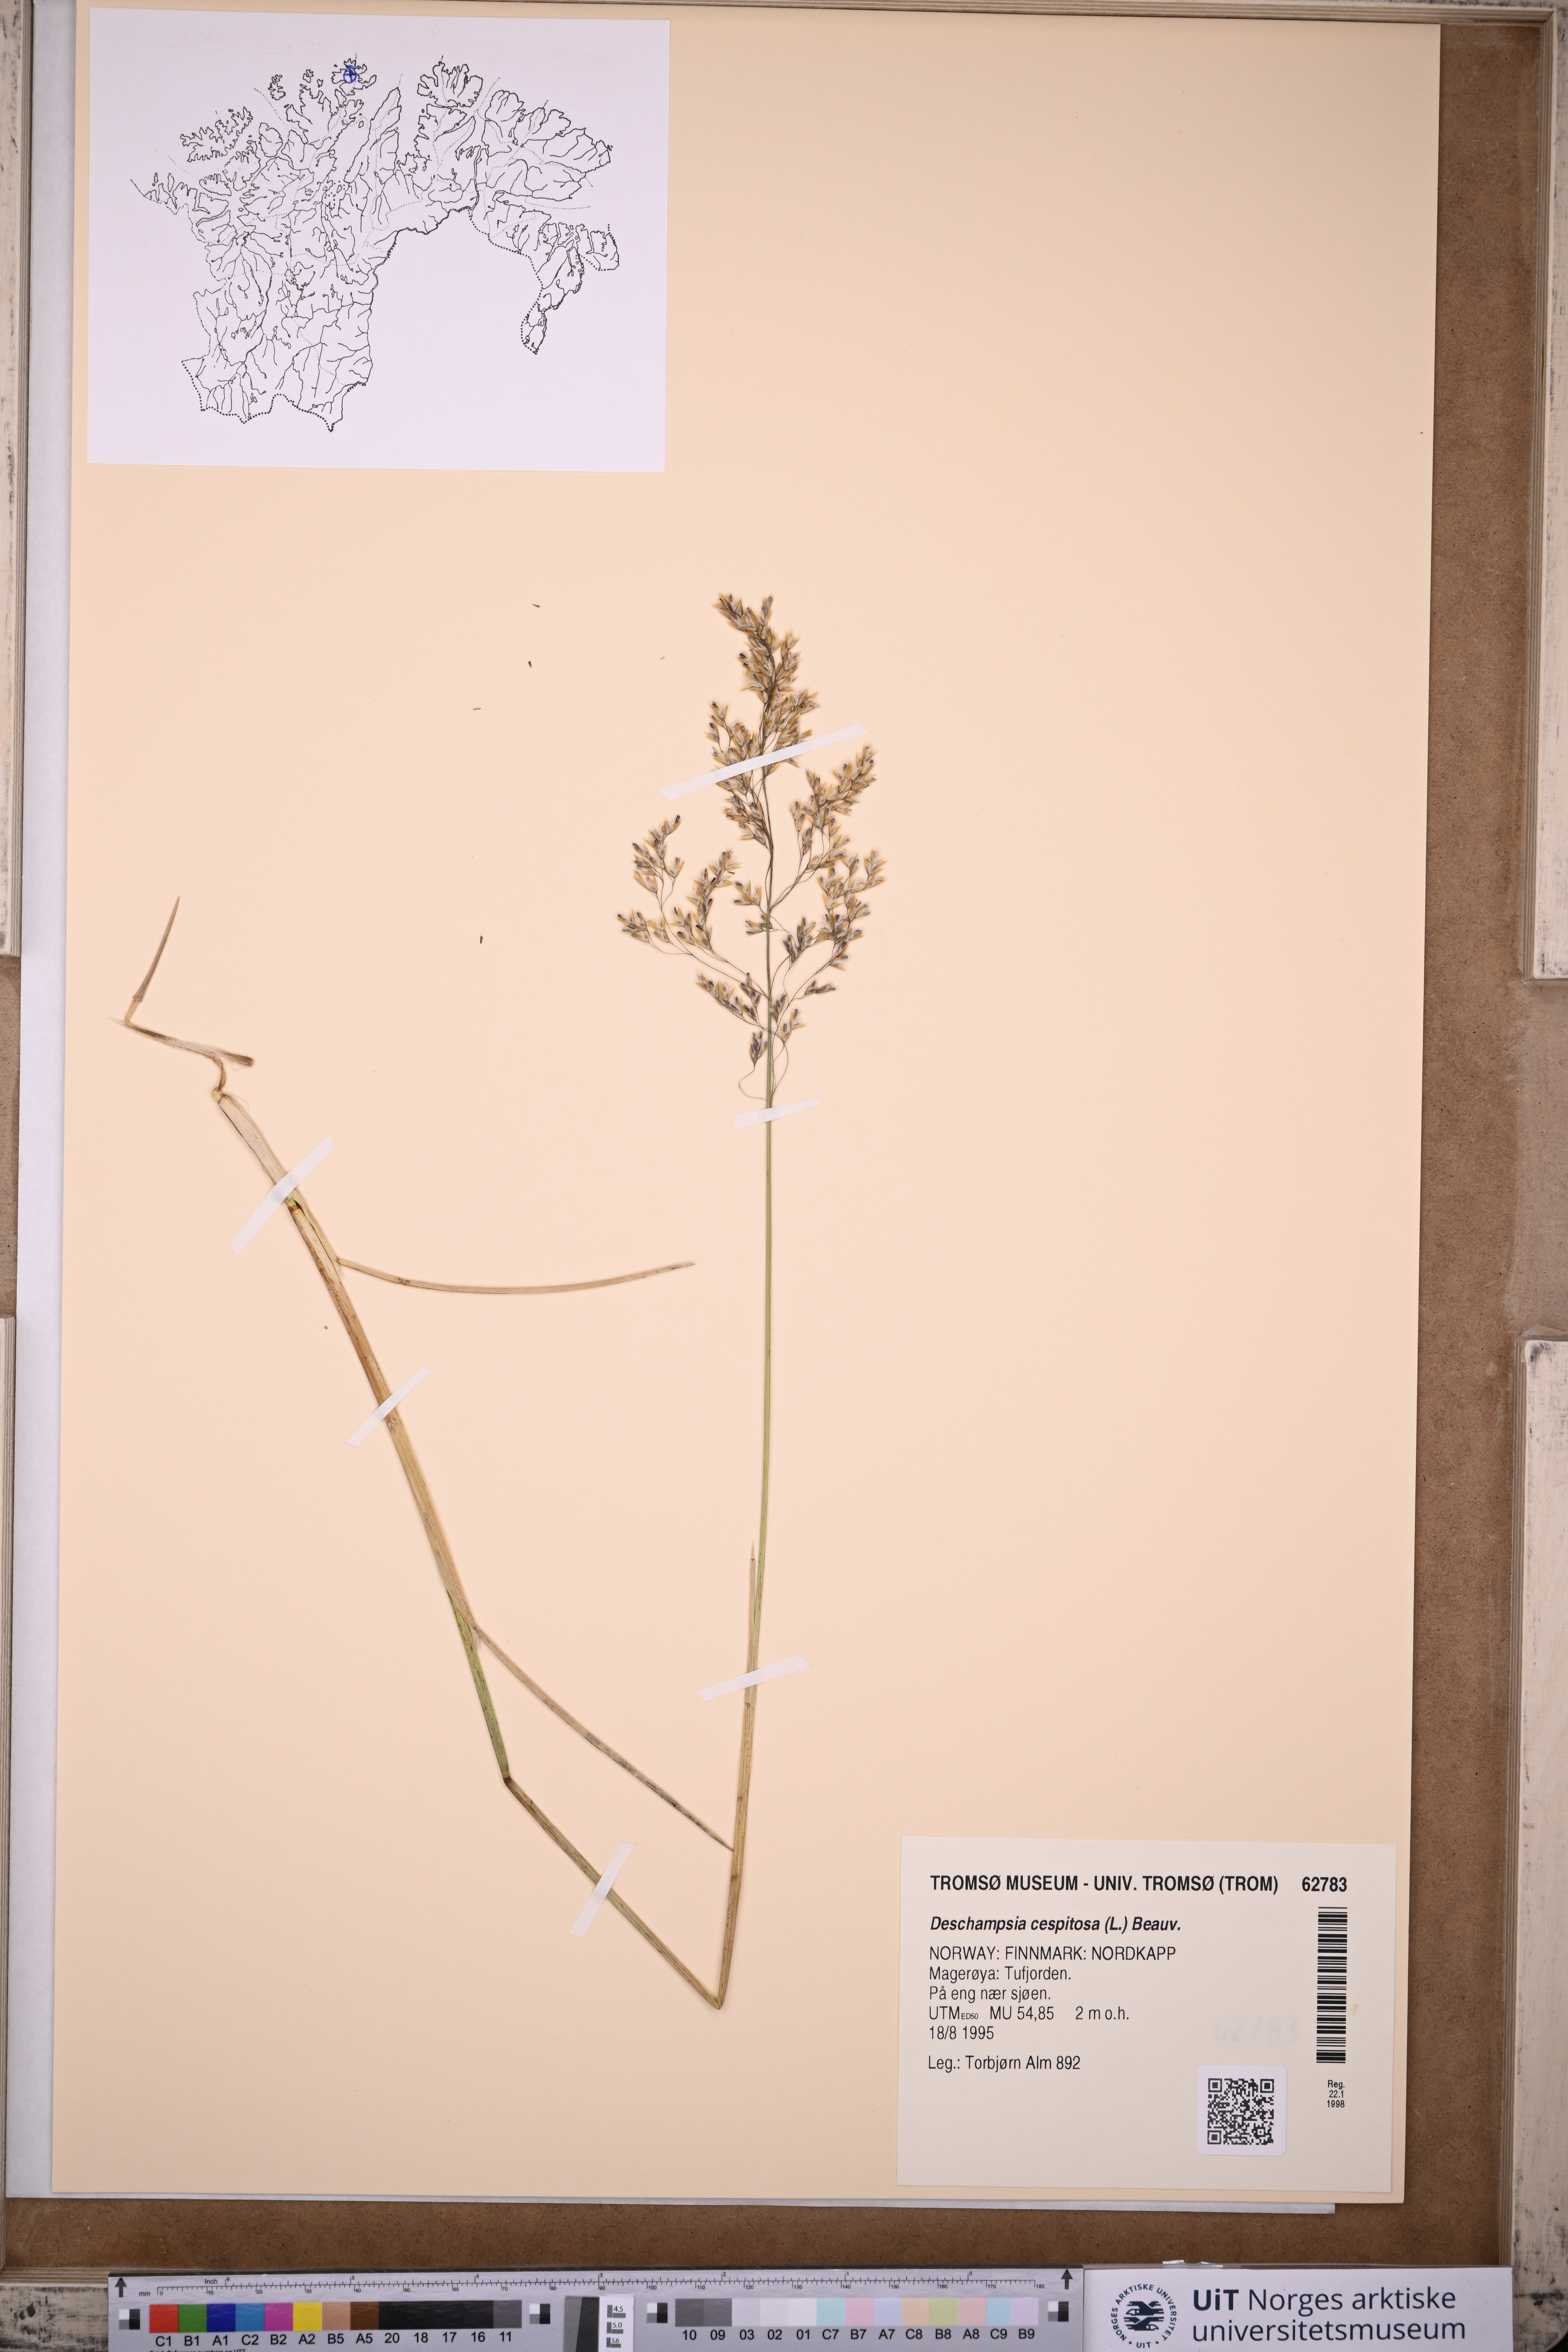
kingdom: Plantae
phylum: Tracheophyta
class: Liliopsida
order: Poales
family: Poaceae
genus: Deschampsia
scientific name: Deschampsia cespitosa
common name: Tufted hair-grass
